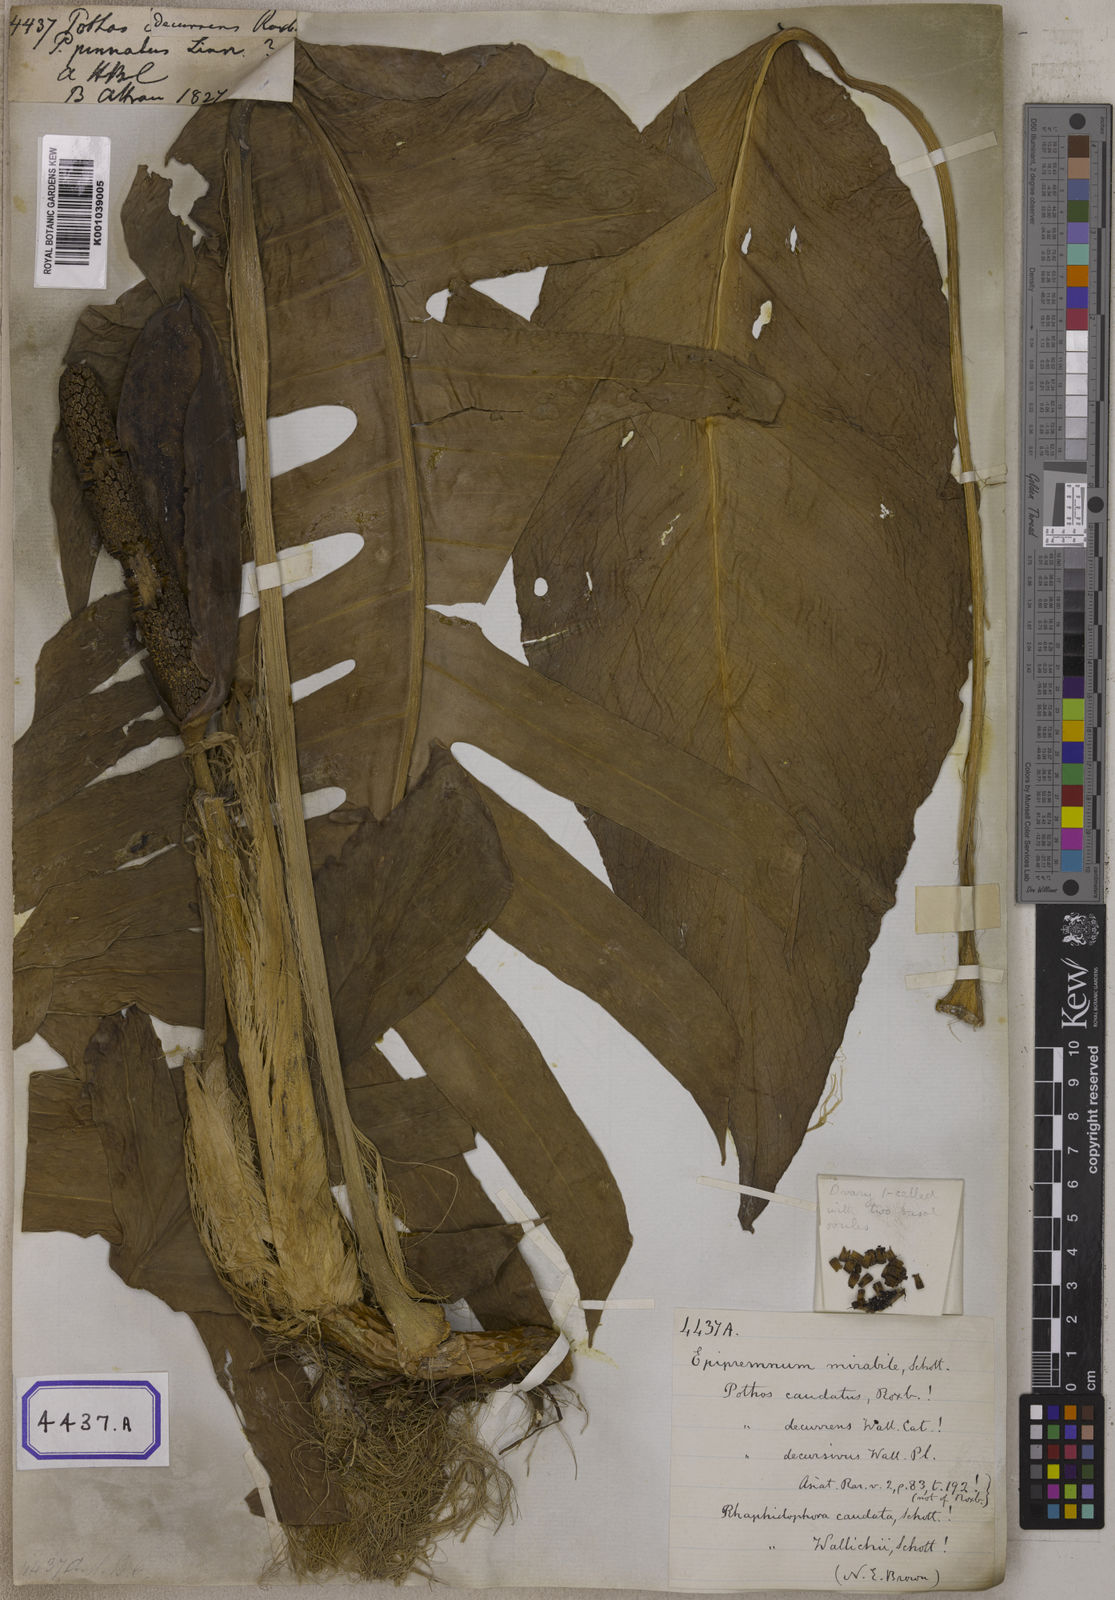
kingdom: Plantae
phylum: Tracheophyta
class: Liliopsida
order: Alismatales
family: Araceae
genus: Epipremnum
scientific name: Epipremnum pinnatum
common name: Centipede tongavine
